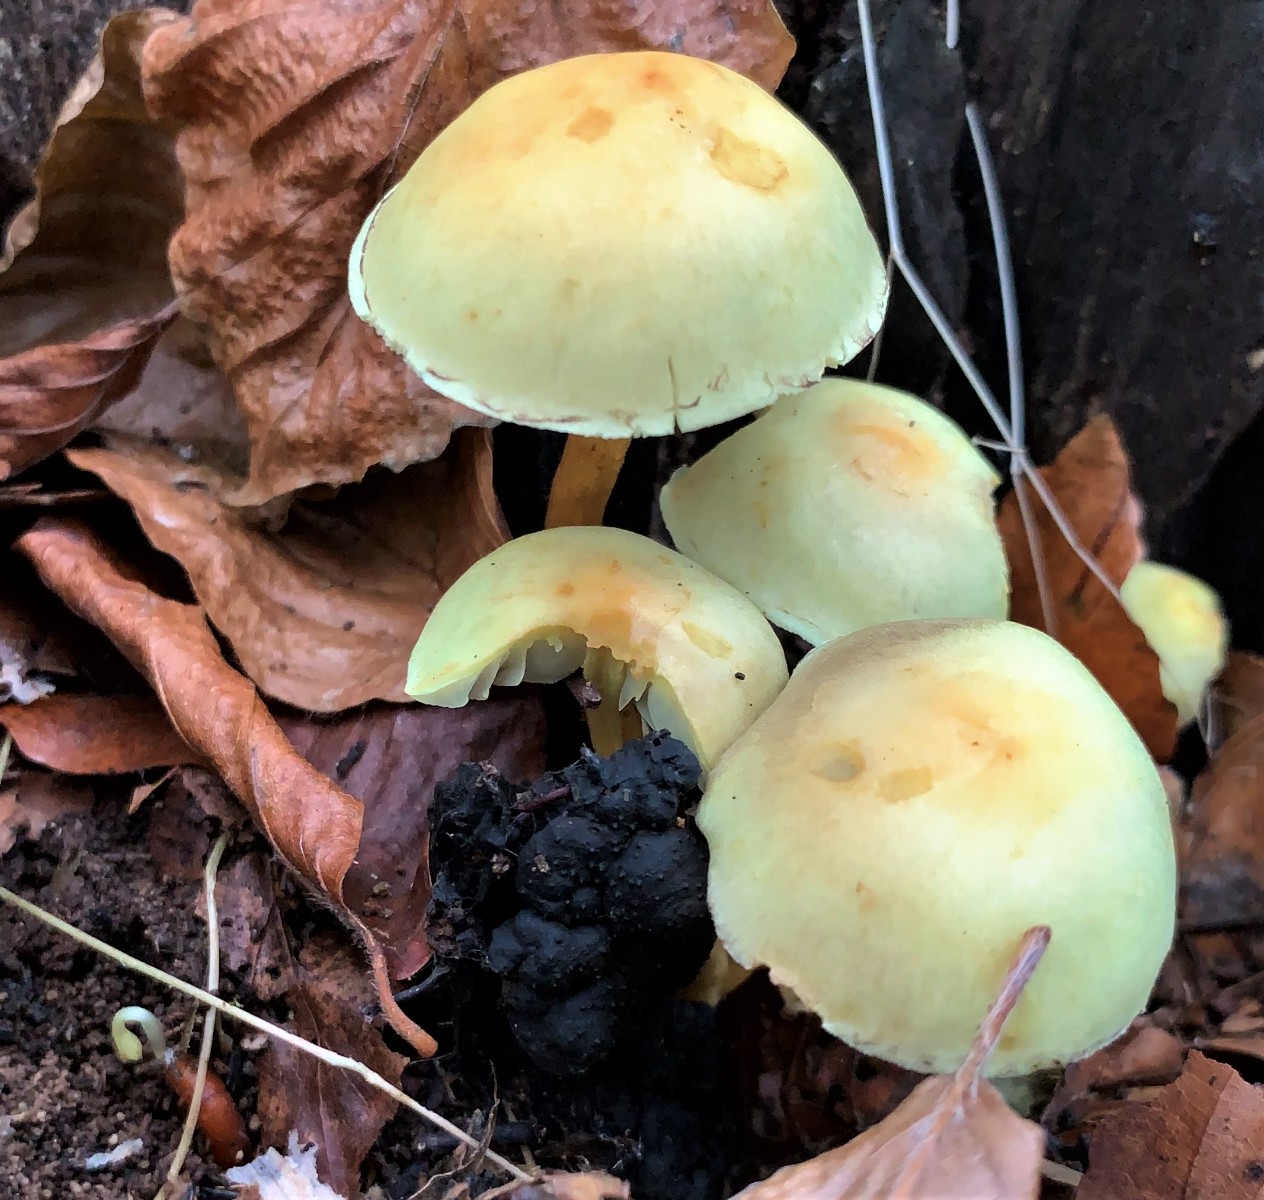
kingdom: Fungi
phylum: Basidiomycota
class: Agaricomycetes
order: Agaricales
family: Strophariaceae
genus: Hypholoma
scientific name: Hypholoma fasciculare
